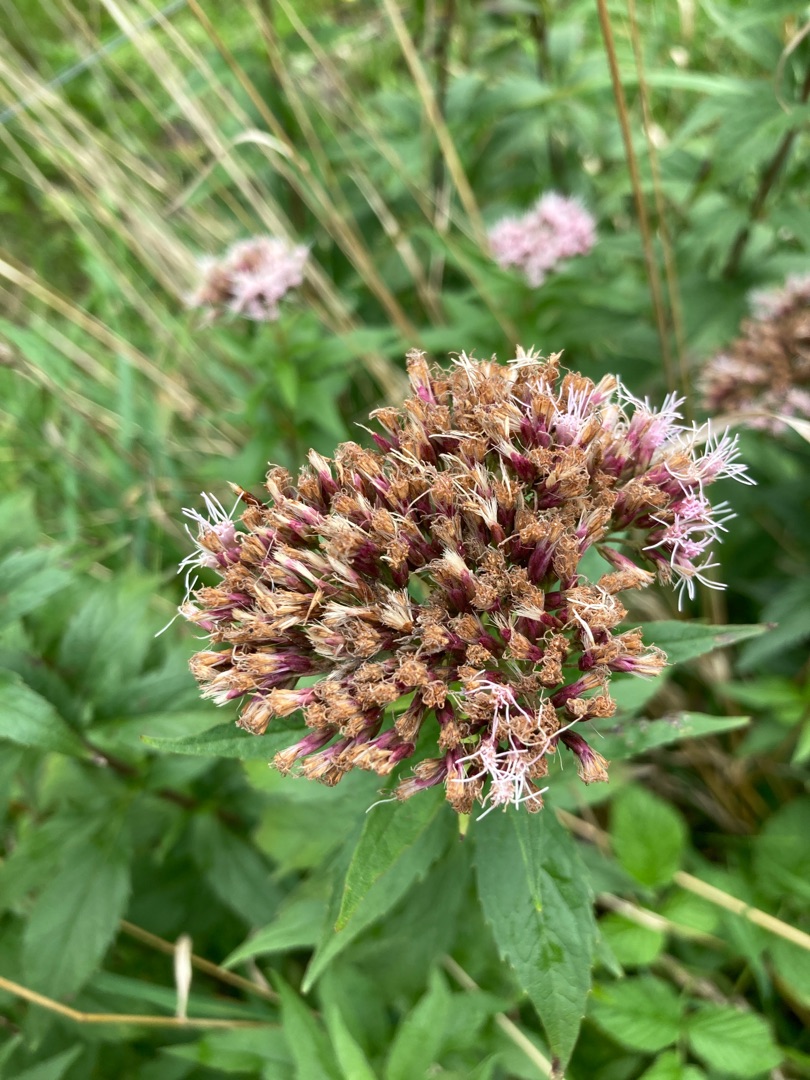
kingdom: Plantae
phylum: Tracheophyta
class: Magnoliopsida
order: Asterales
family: Asteraceae
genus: Eupatorium
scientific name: Eupatorium cannabinum
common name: Hjortetrøst
